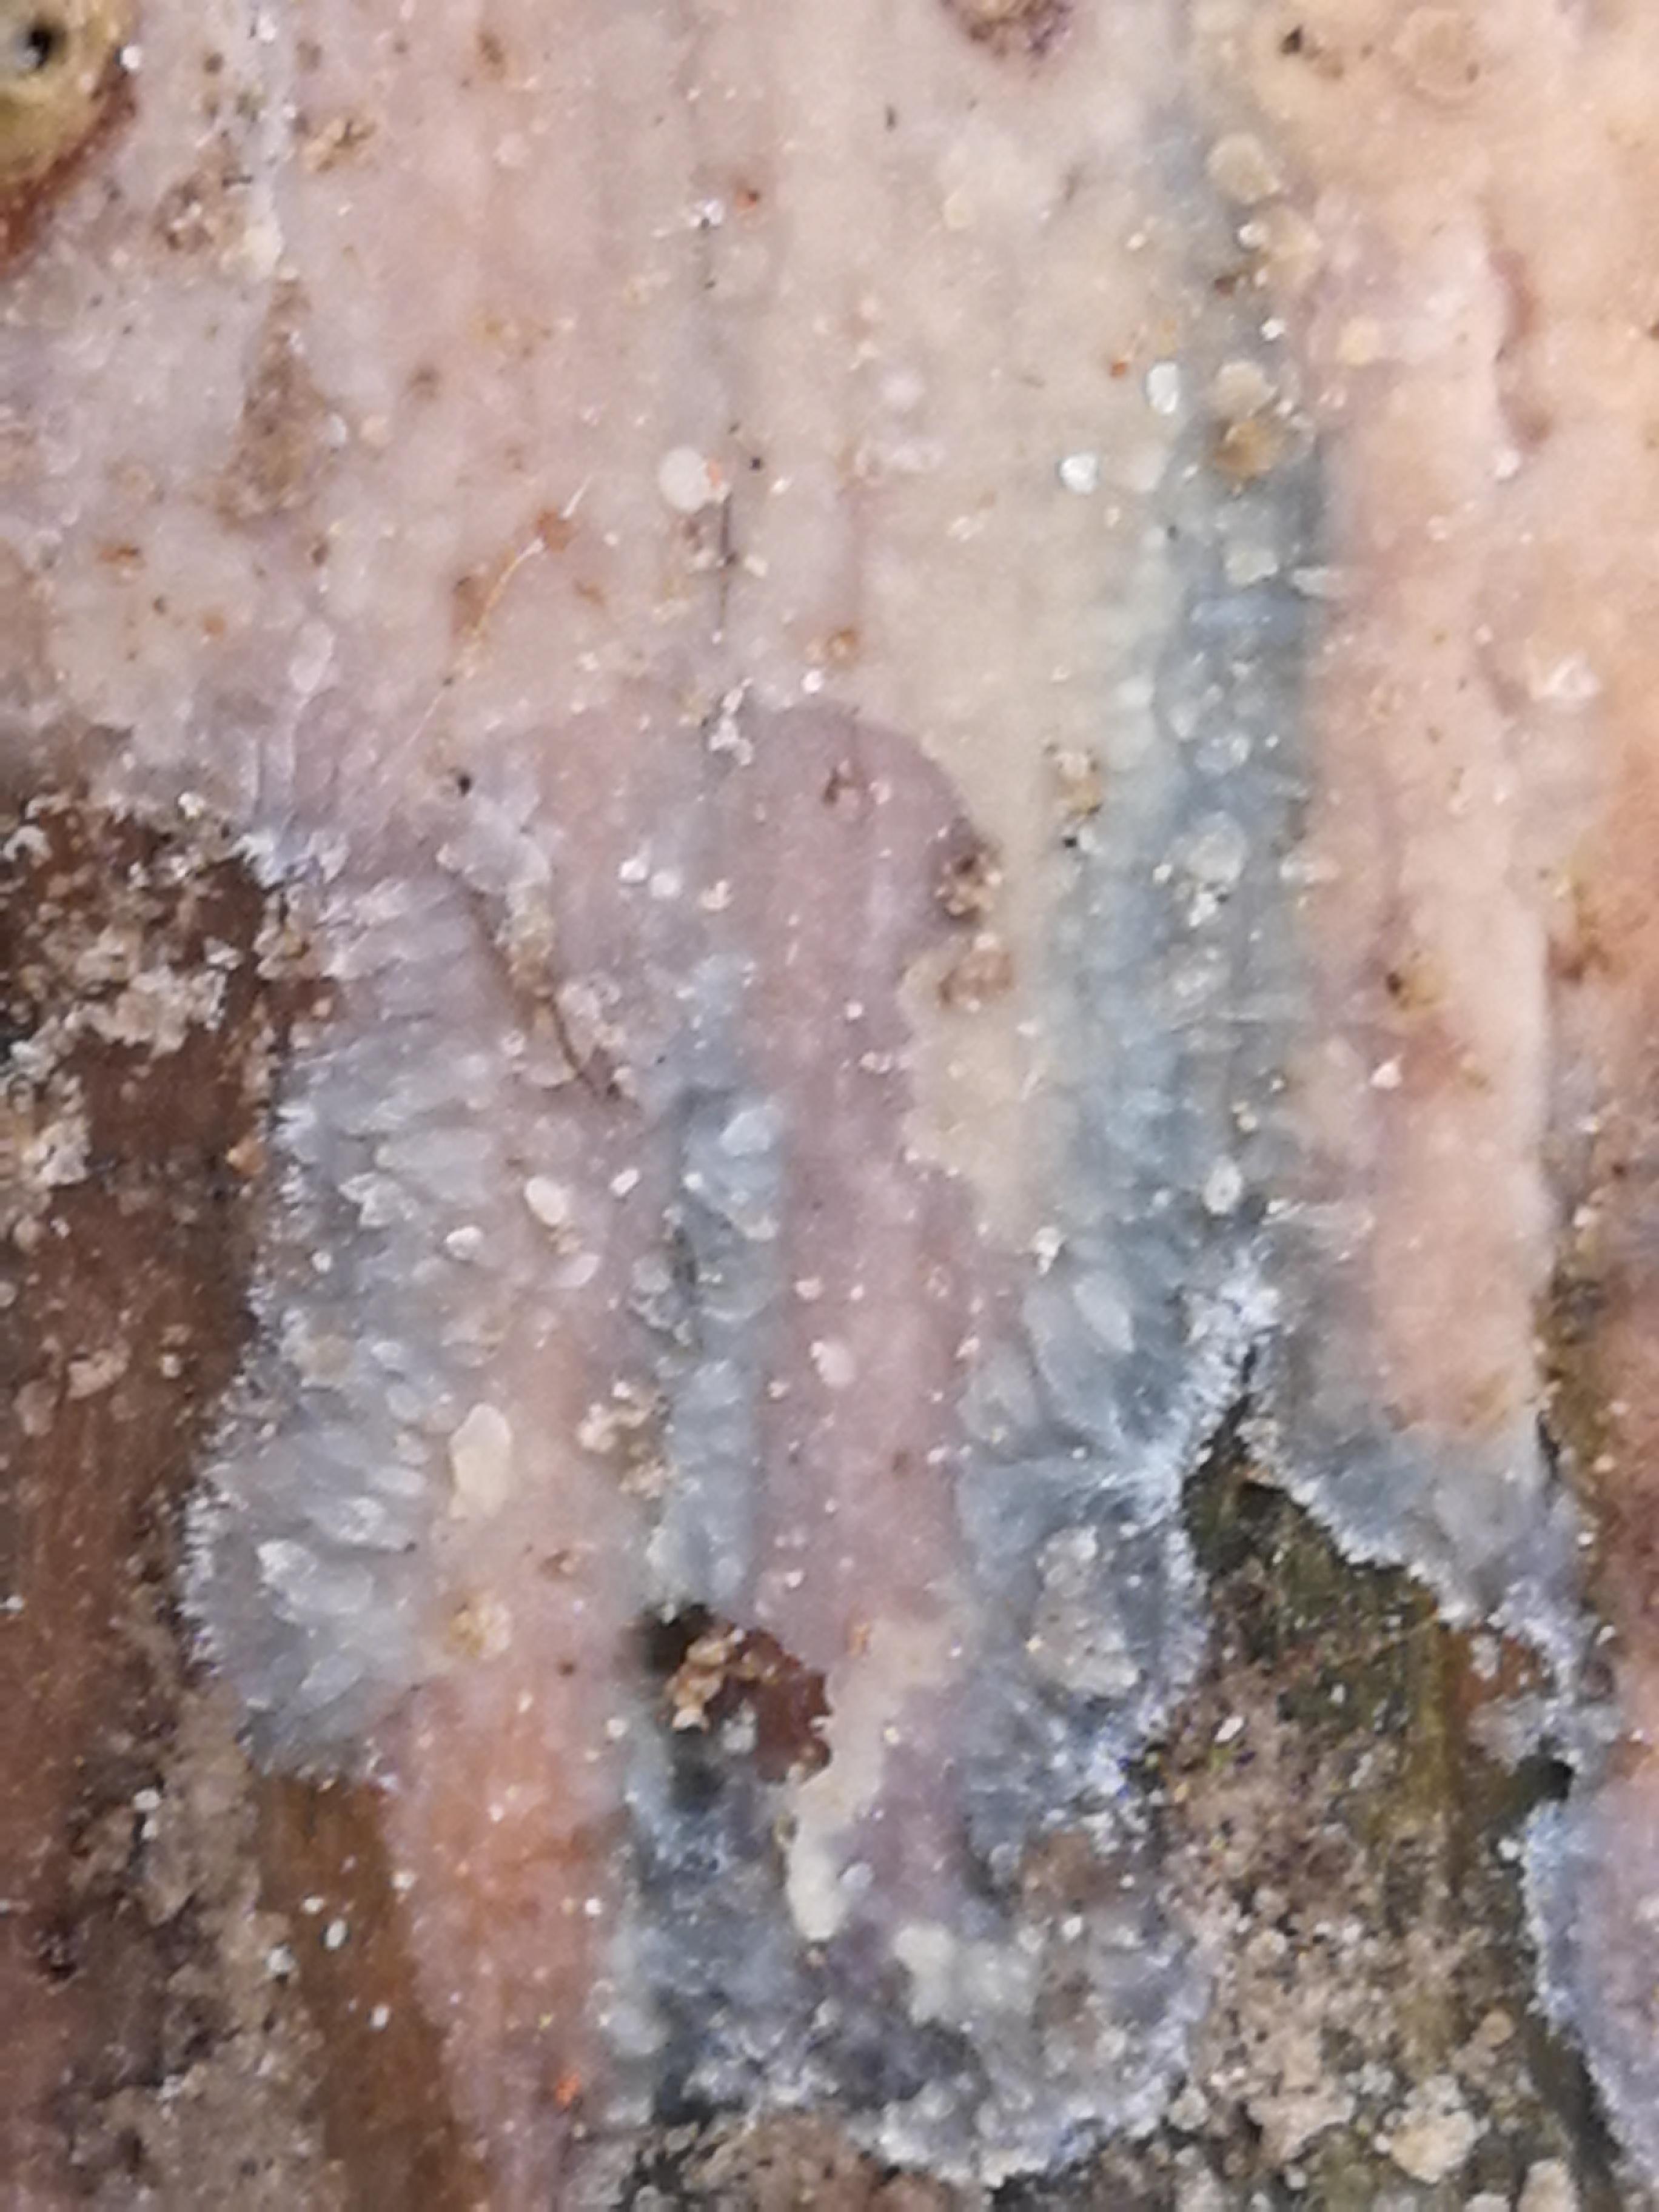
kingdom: Fungi
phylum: Basidiomycota
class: Agaricomycetes
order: Agaricales
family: Radulomycetaceae
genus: Radulomyces
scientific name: Radulomyces confluens
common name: glat naftalinskind
